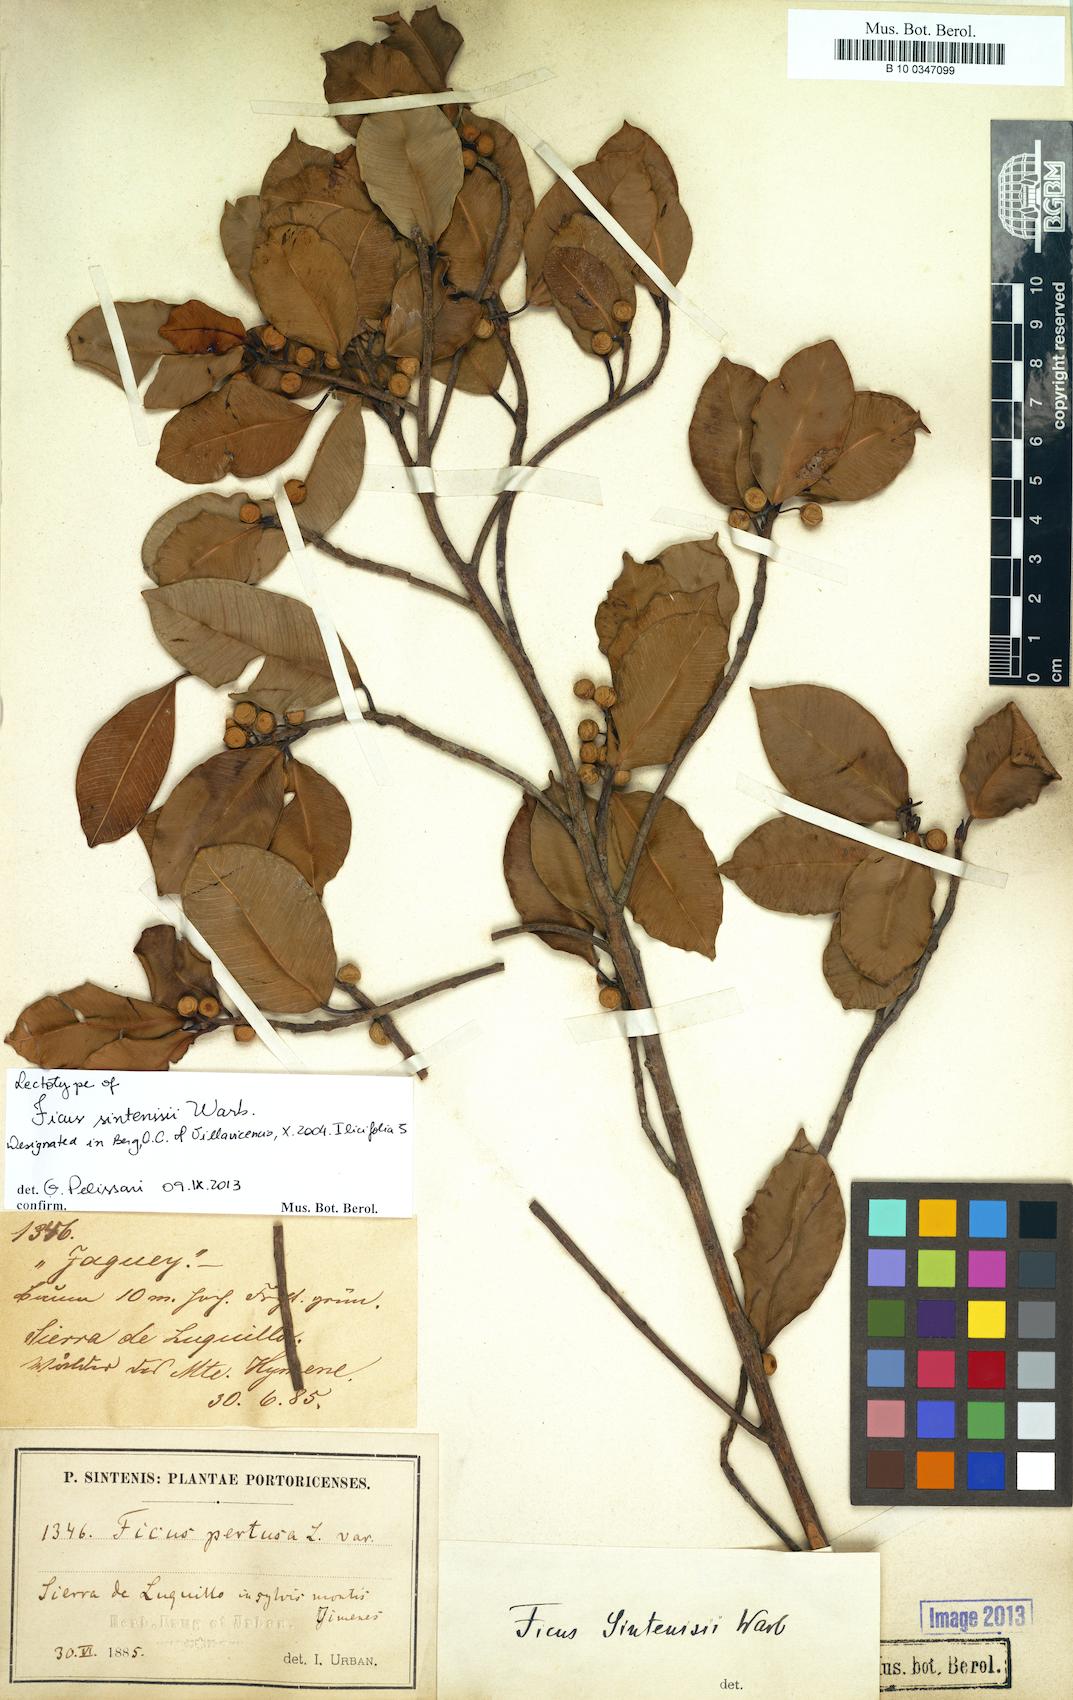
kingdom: Plantae
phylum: Tracheophyta
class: Magnoliopsida
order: Rosales
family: Moraceae
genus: Ficus
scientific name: Ficus americana
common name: Jamaican cherry fig
